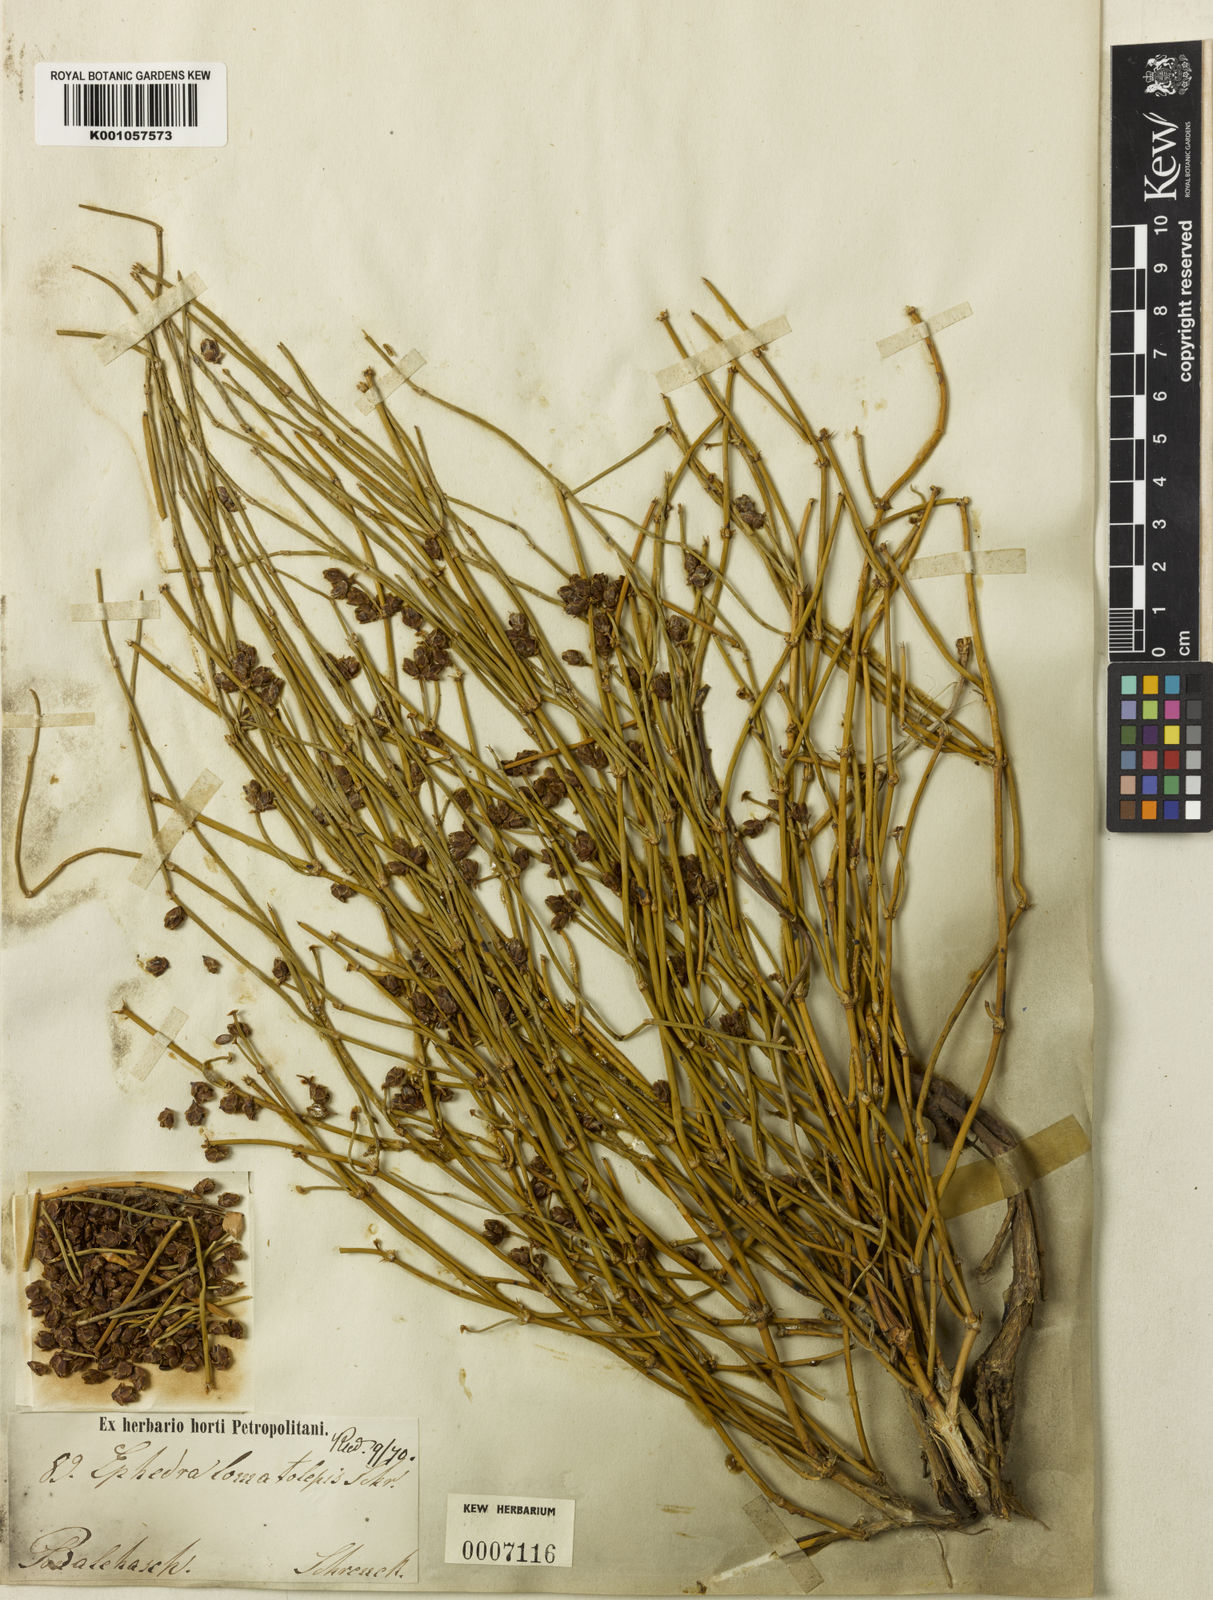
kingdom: Plantae
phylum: Tracheophyta
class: Gnetopsida
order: Ephedrales
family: Ephedraceae
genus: Ephedra
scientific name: Ephedra lomatolepis
